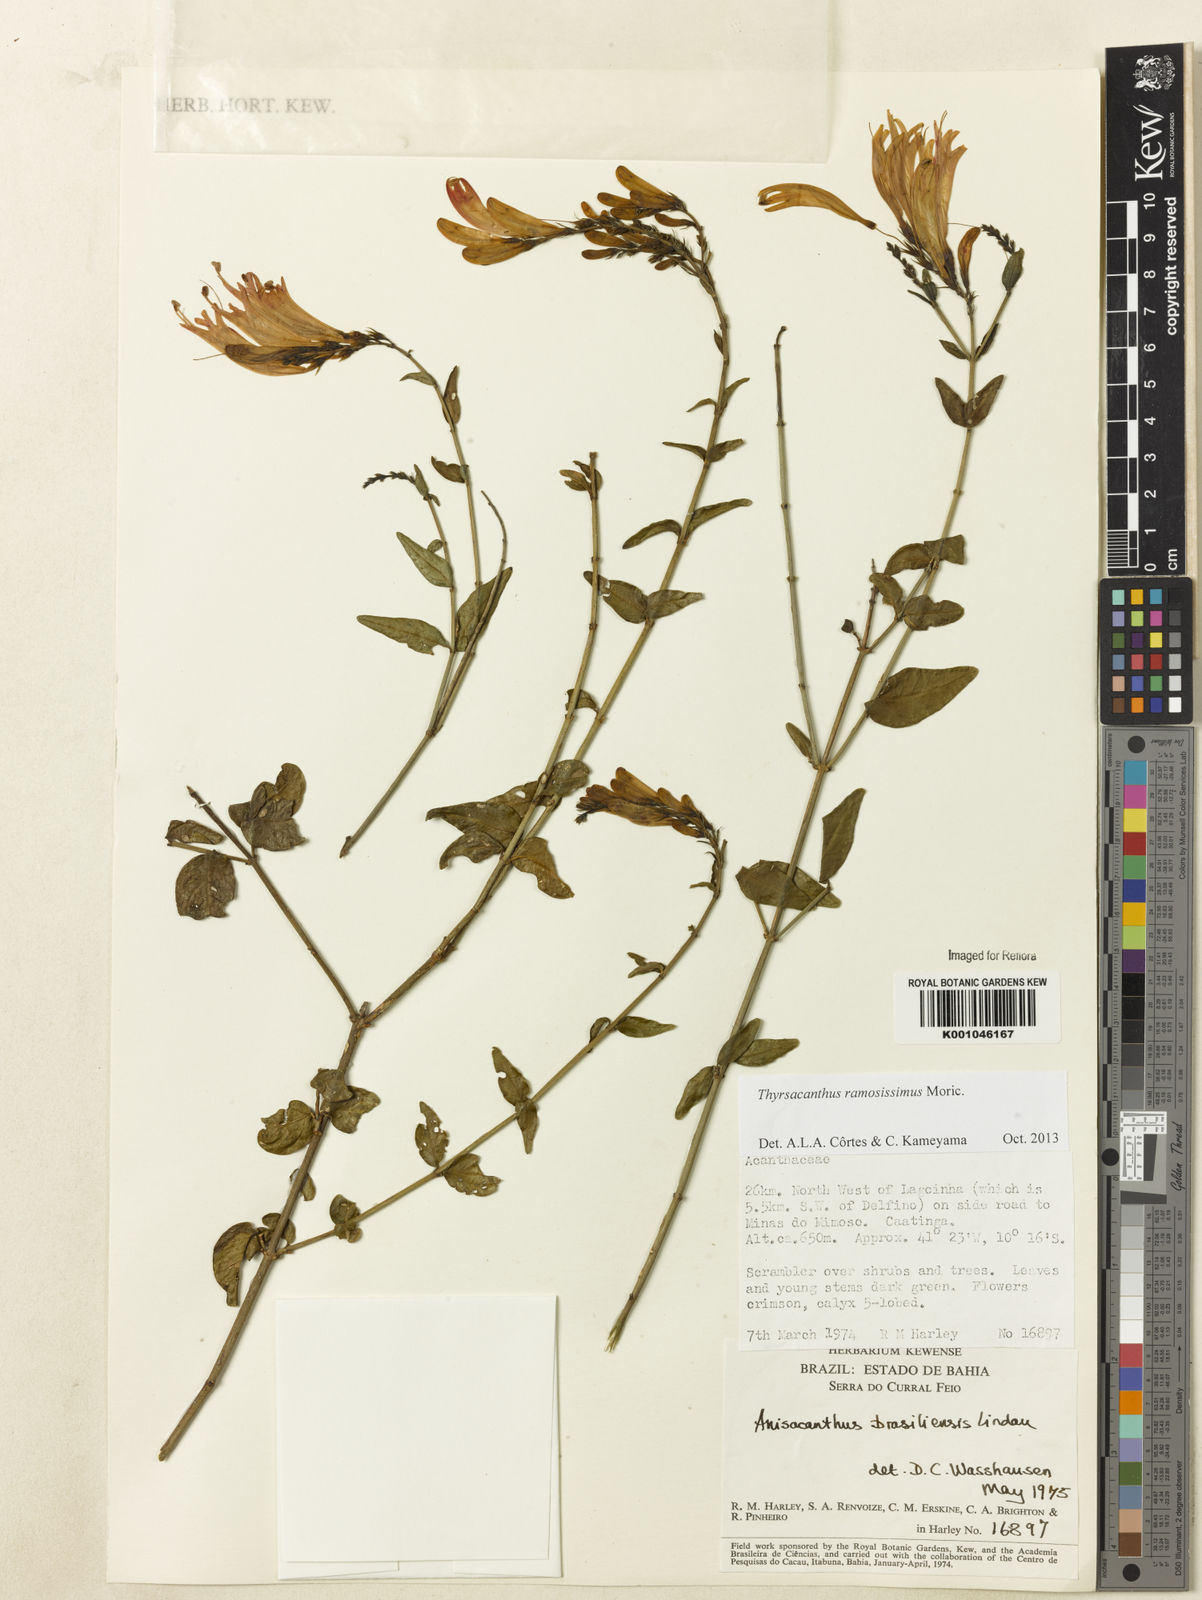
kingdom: Plantae
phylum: Tracheophyta
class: Magnoliopsida
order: Lamiales
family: Acanthaceae
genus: Thyrsacanthus
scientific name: Thyrsacanthus ramosissimus
